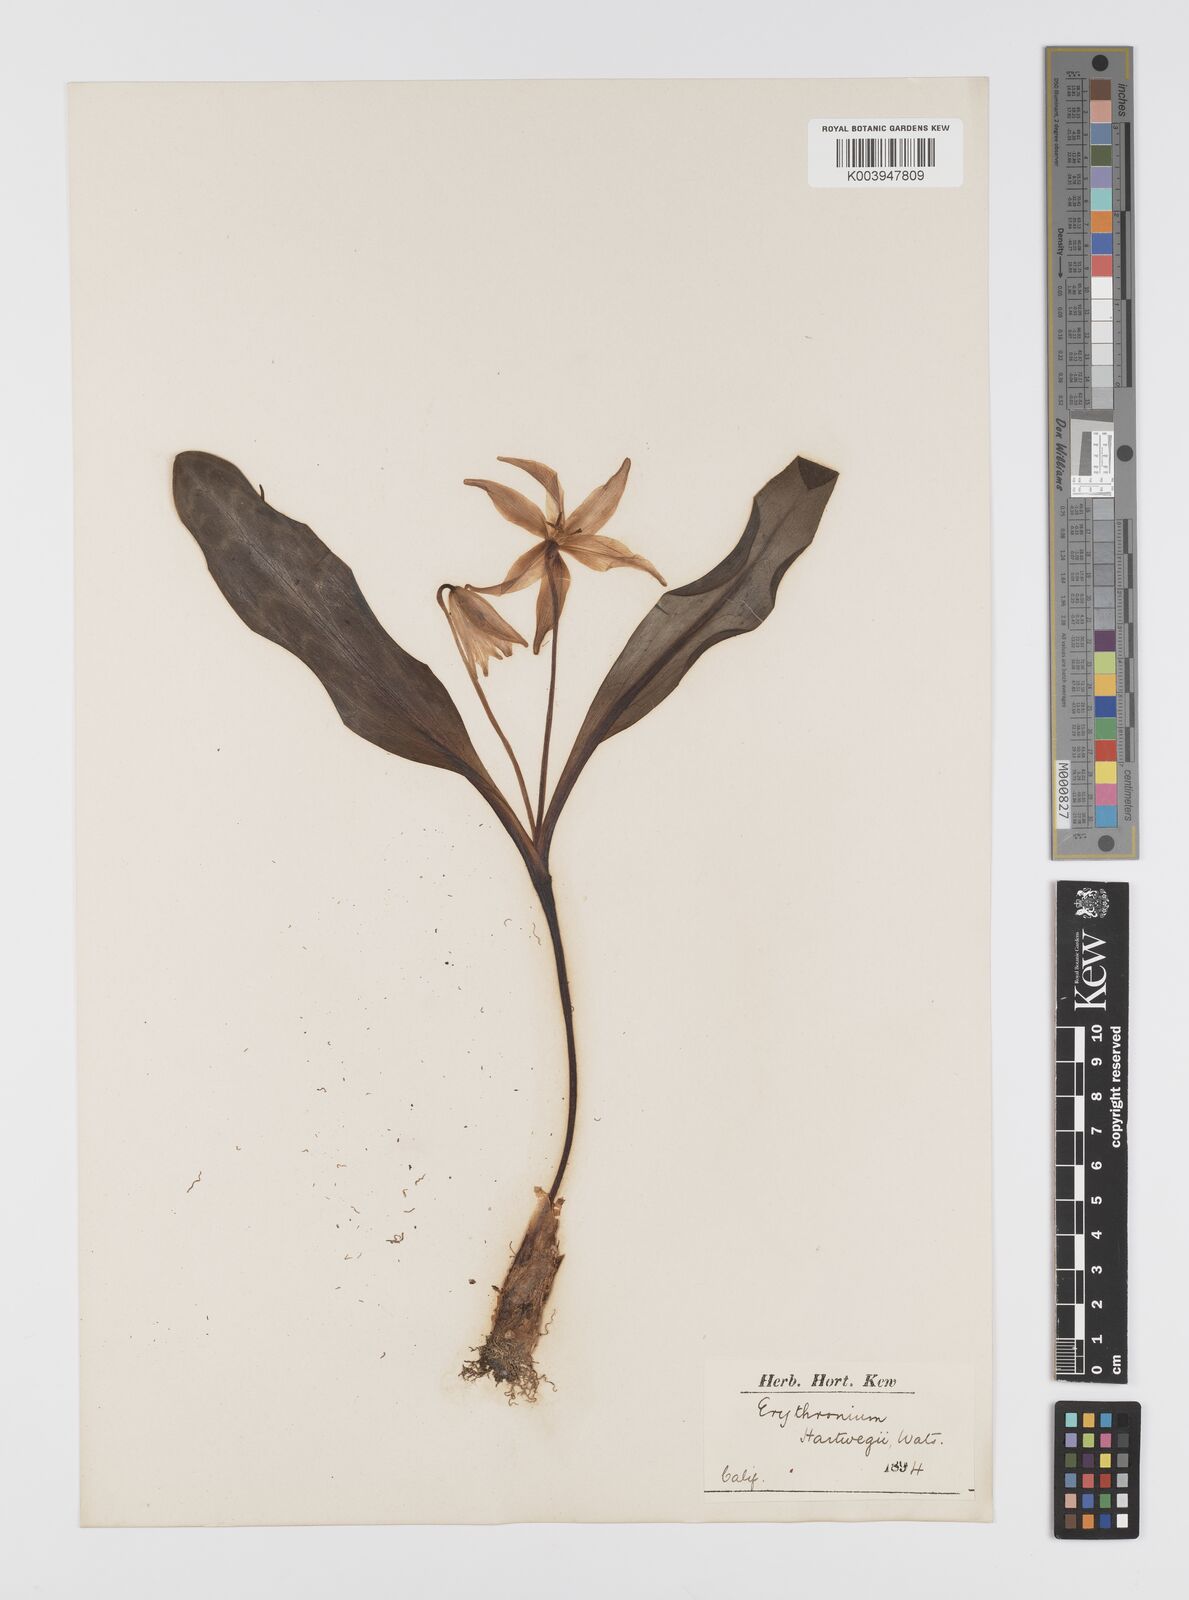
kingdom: Plantae
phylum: Tracheophyta
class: Liliopsida
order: Liliales
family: Liliaceae
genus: Erythronium
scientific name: Erythronium multiscapideum
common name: Sierra foothills fawn-lily
